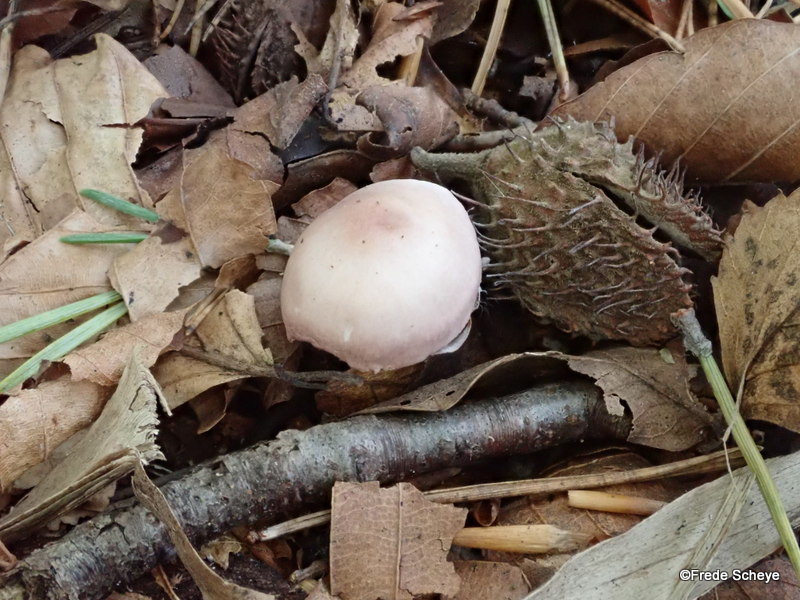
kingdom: Fungi
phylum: Basidiomycota
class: Agaricomycetes
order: Agaricales
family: Mycenaceae
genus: Mycena
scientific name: Mycena rosea
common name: rosa huesvamp
